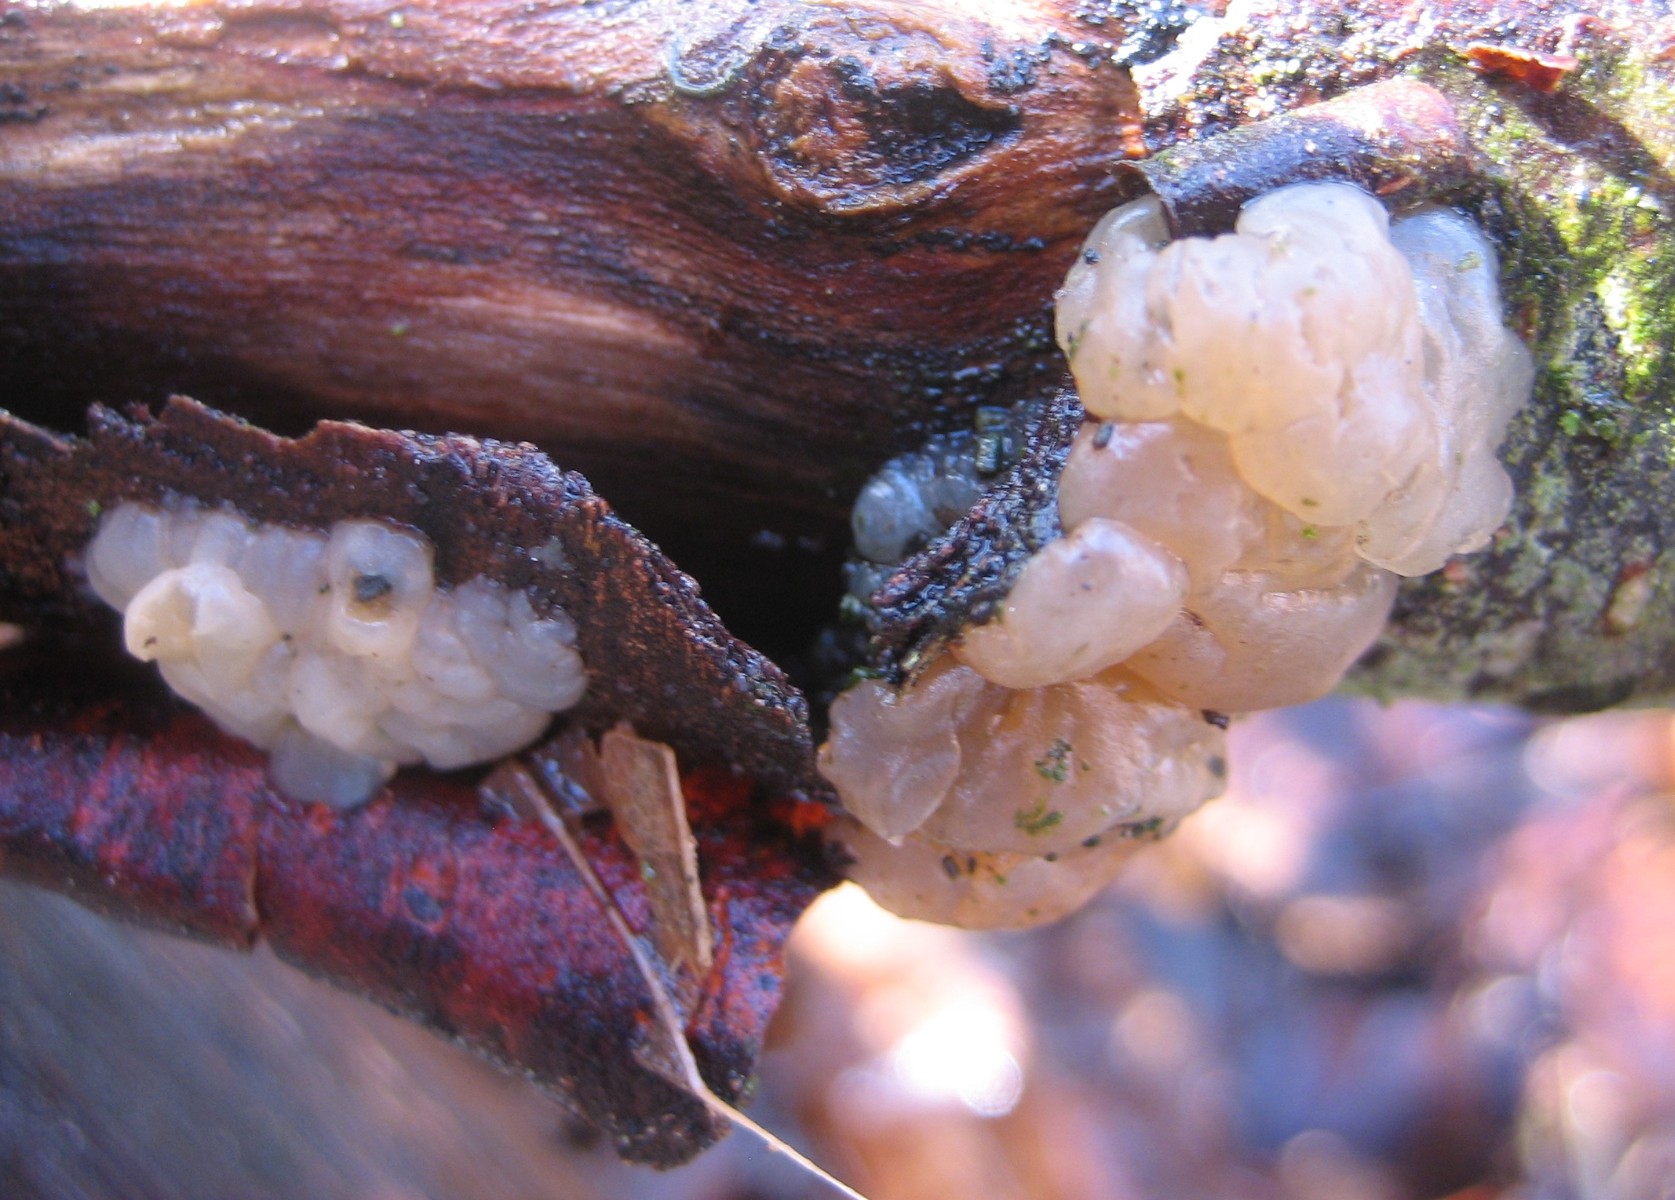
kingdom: Fungi
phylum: Basidiomycota
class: Agaricomycetes
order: Auriculariales
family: Hyaloriaceae
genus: Myxarium
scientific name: Myxarium
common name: bævretop
